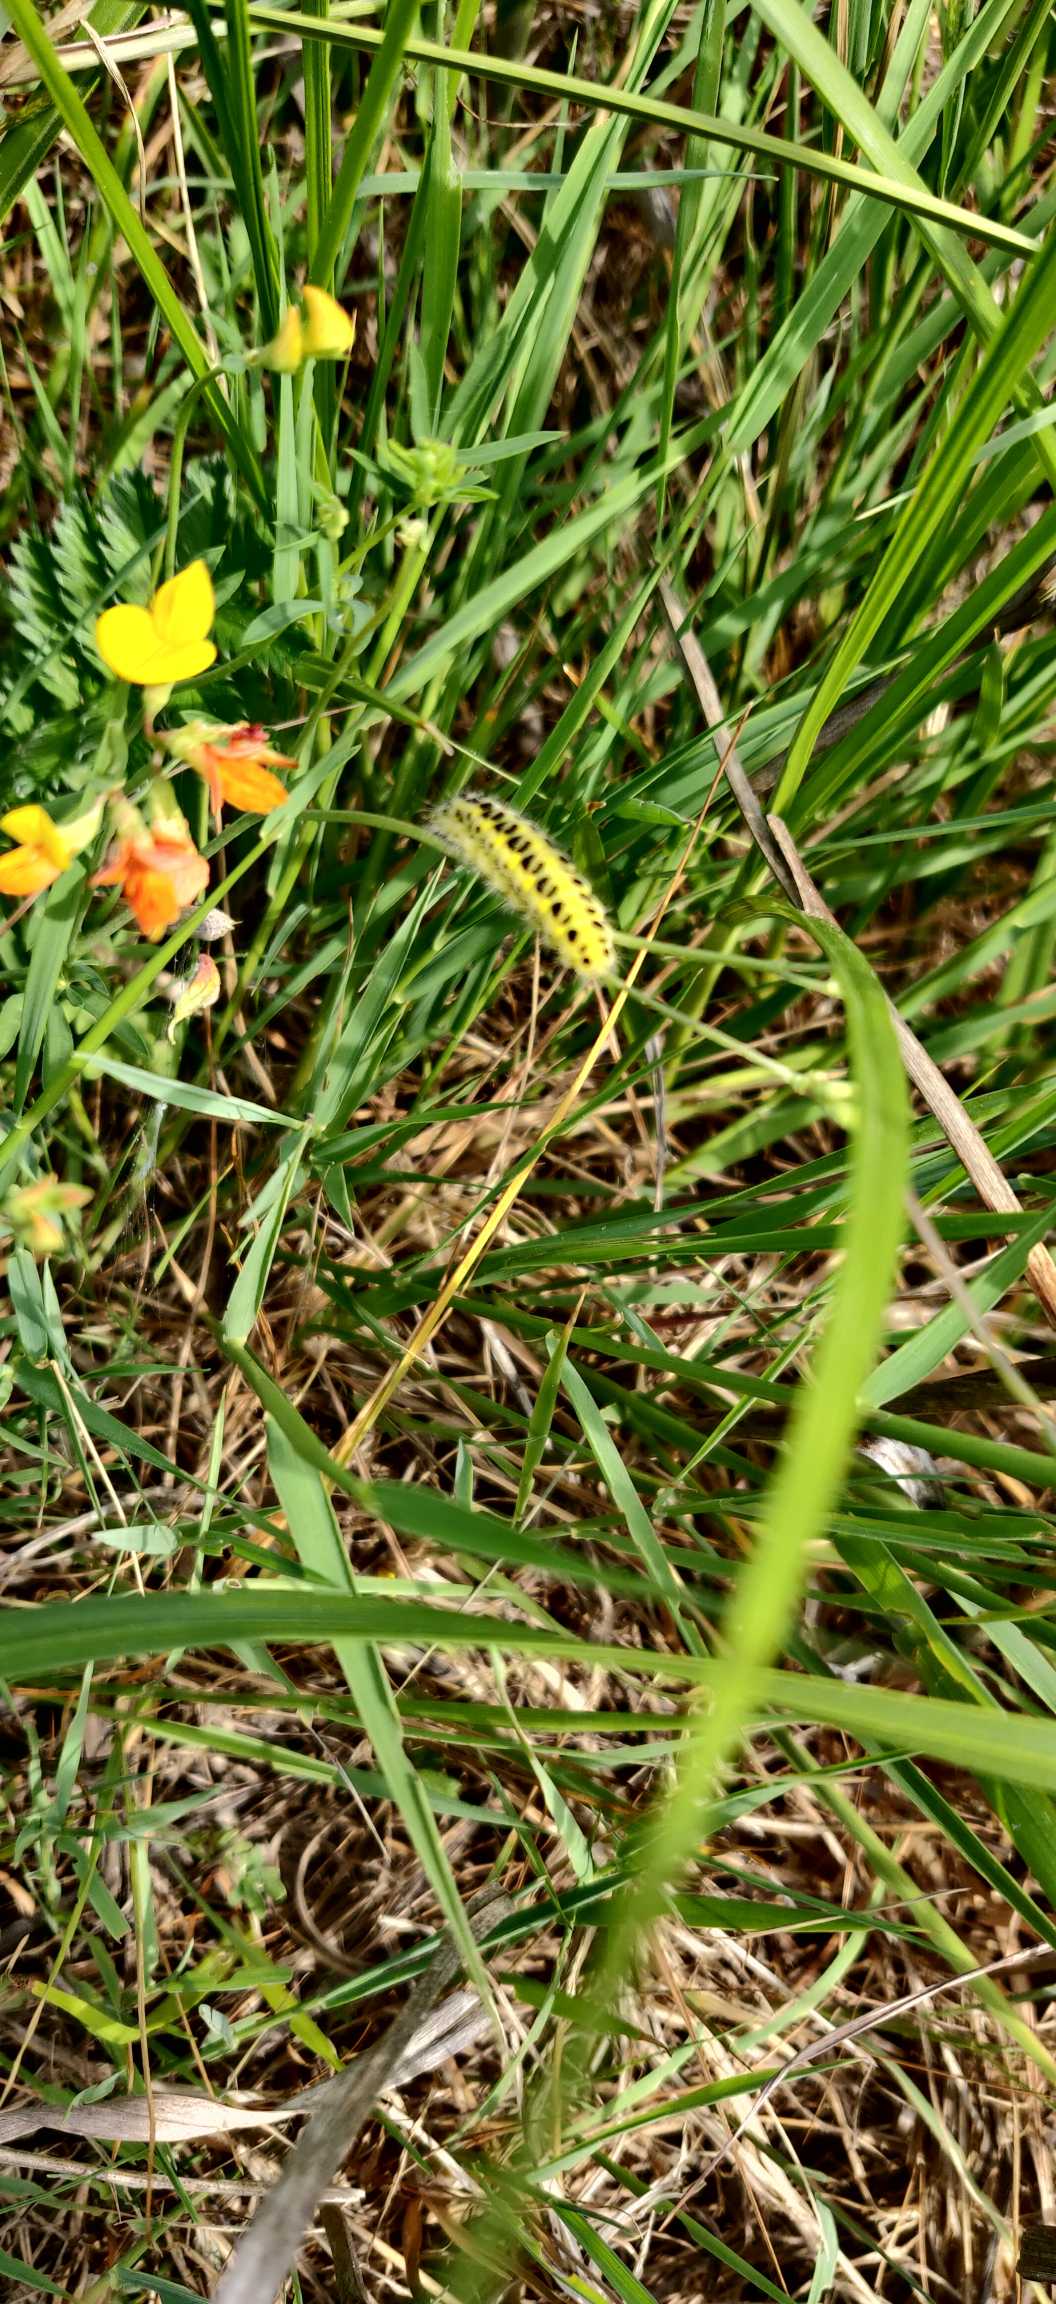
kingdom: Plantae
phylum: Tracheophyta
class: Magnoliopsida
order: Fabales
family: Fabaceae
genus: Lotus
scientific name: Lotus corniculatus
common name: Almindelig kællingetand
